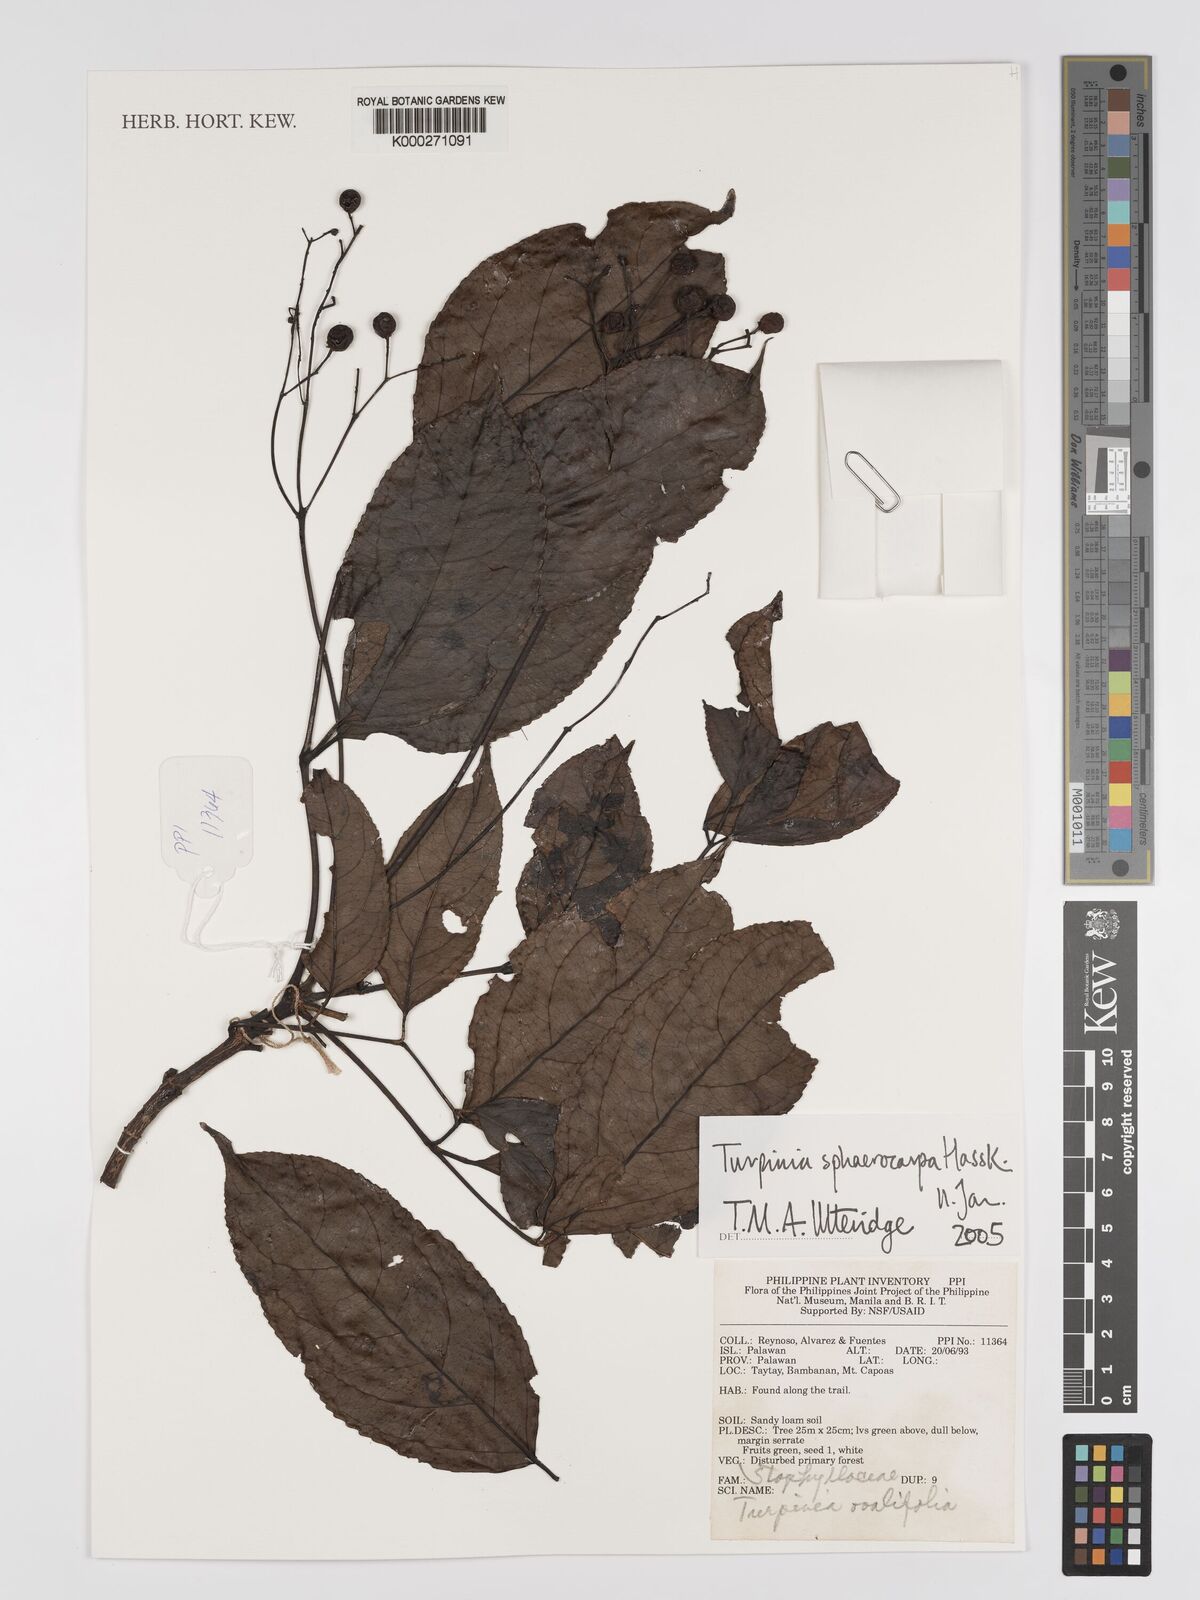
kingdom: Plantae
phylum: Tracheophyta
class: Magnoliopsida
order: Crossosomatales
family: Staphyleaceae
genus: Dalrympelea
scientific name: Dalrympelea sphaerocarpa
